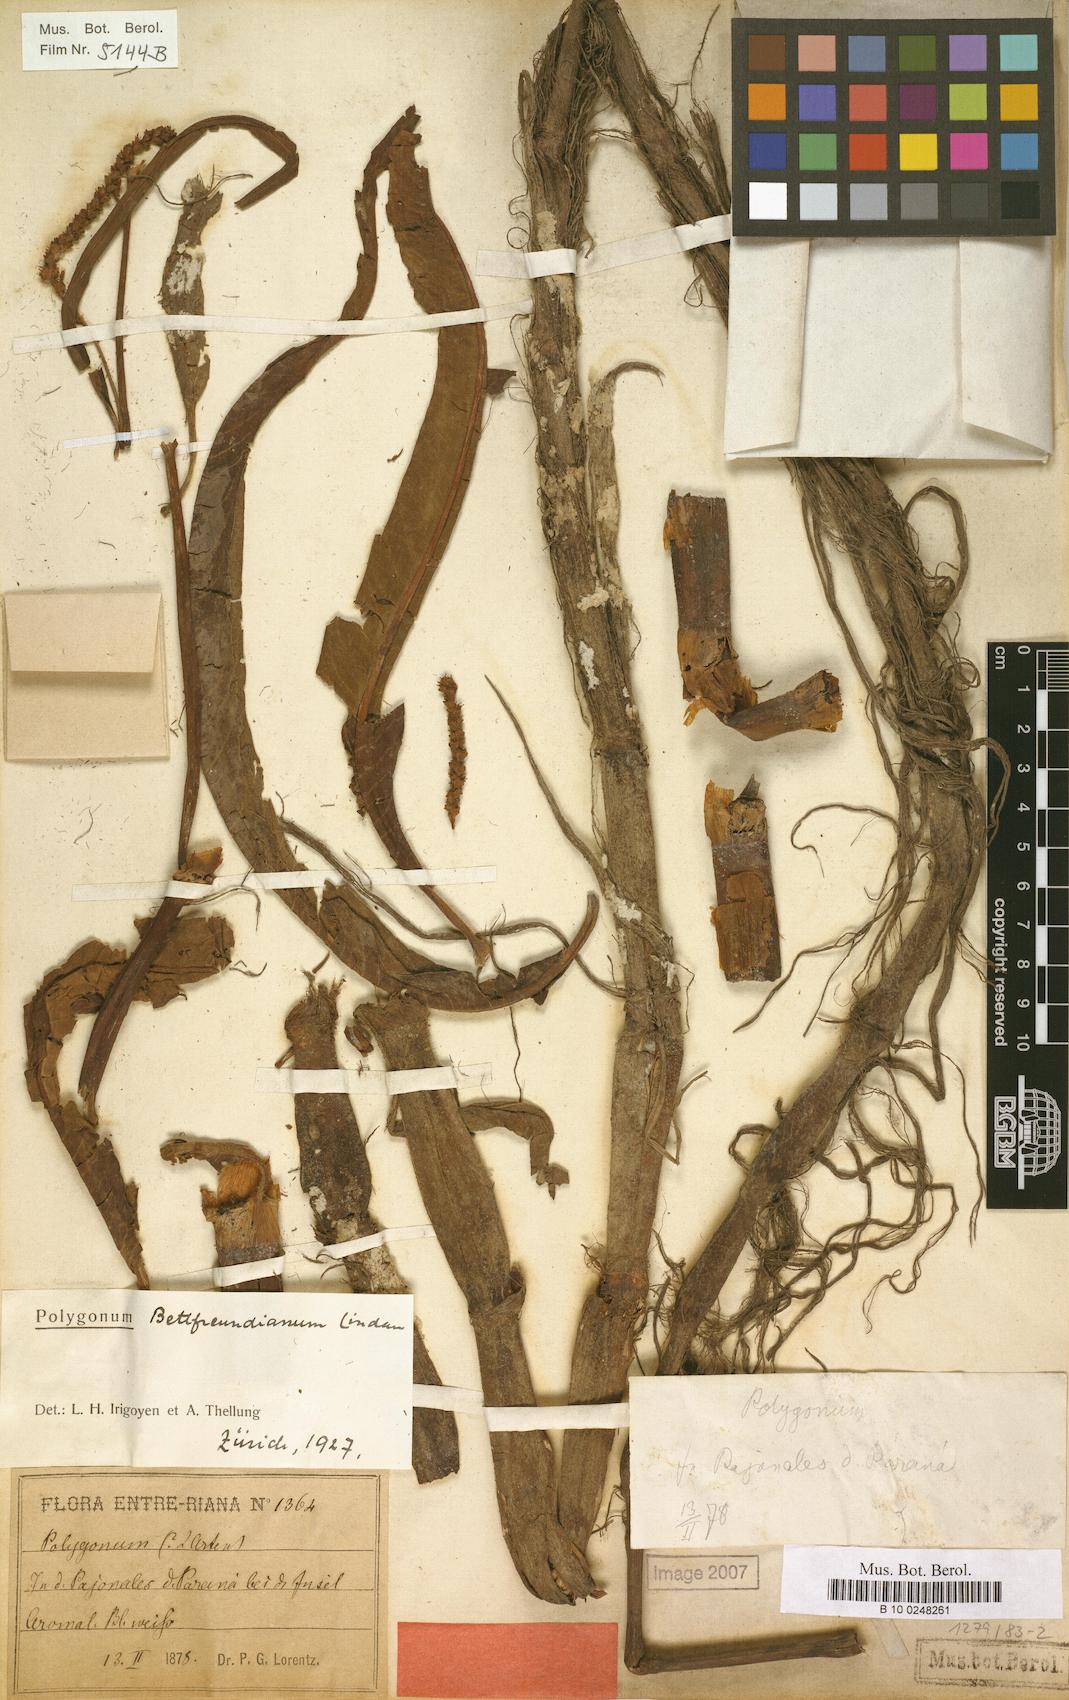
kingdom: Plantae
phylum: Tracheophyta
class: Magnoliopsida
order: Caryophyllales
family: Polygonaceae
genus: Persicaria
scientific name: Persicaria acuminata
